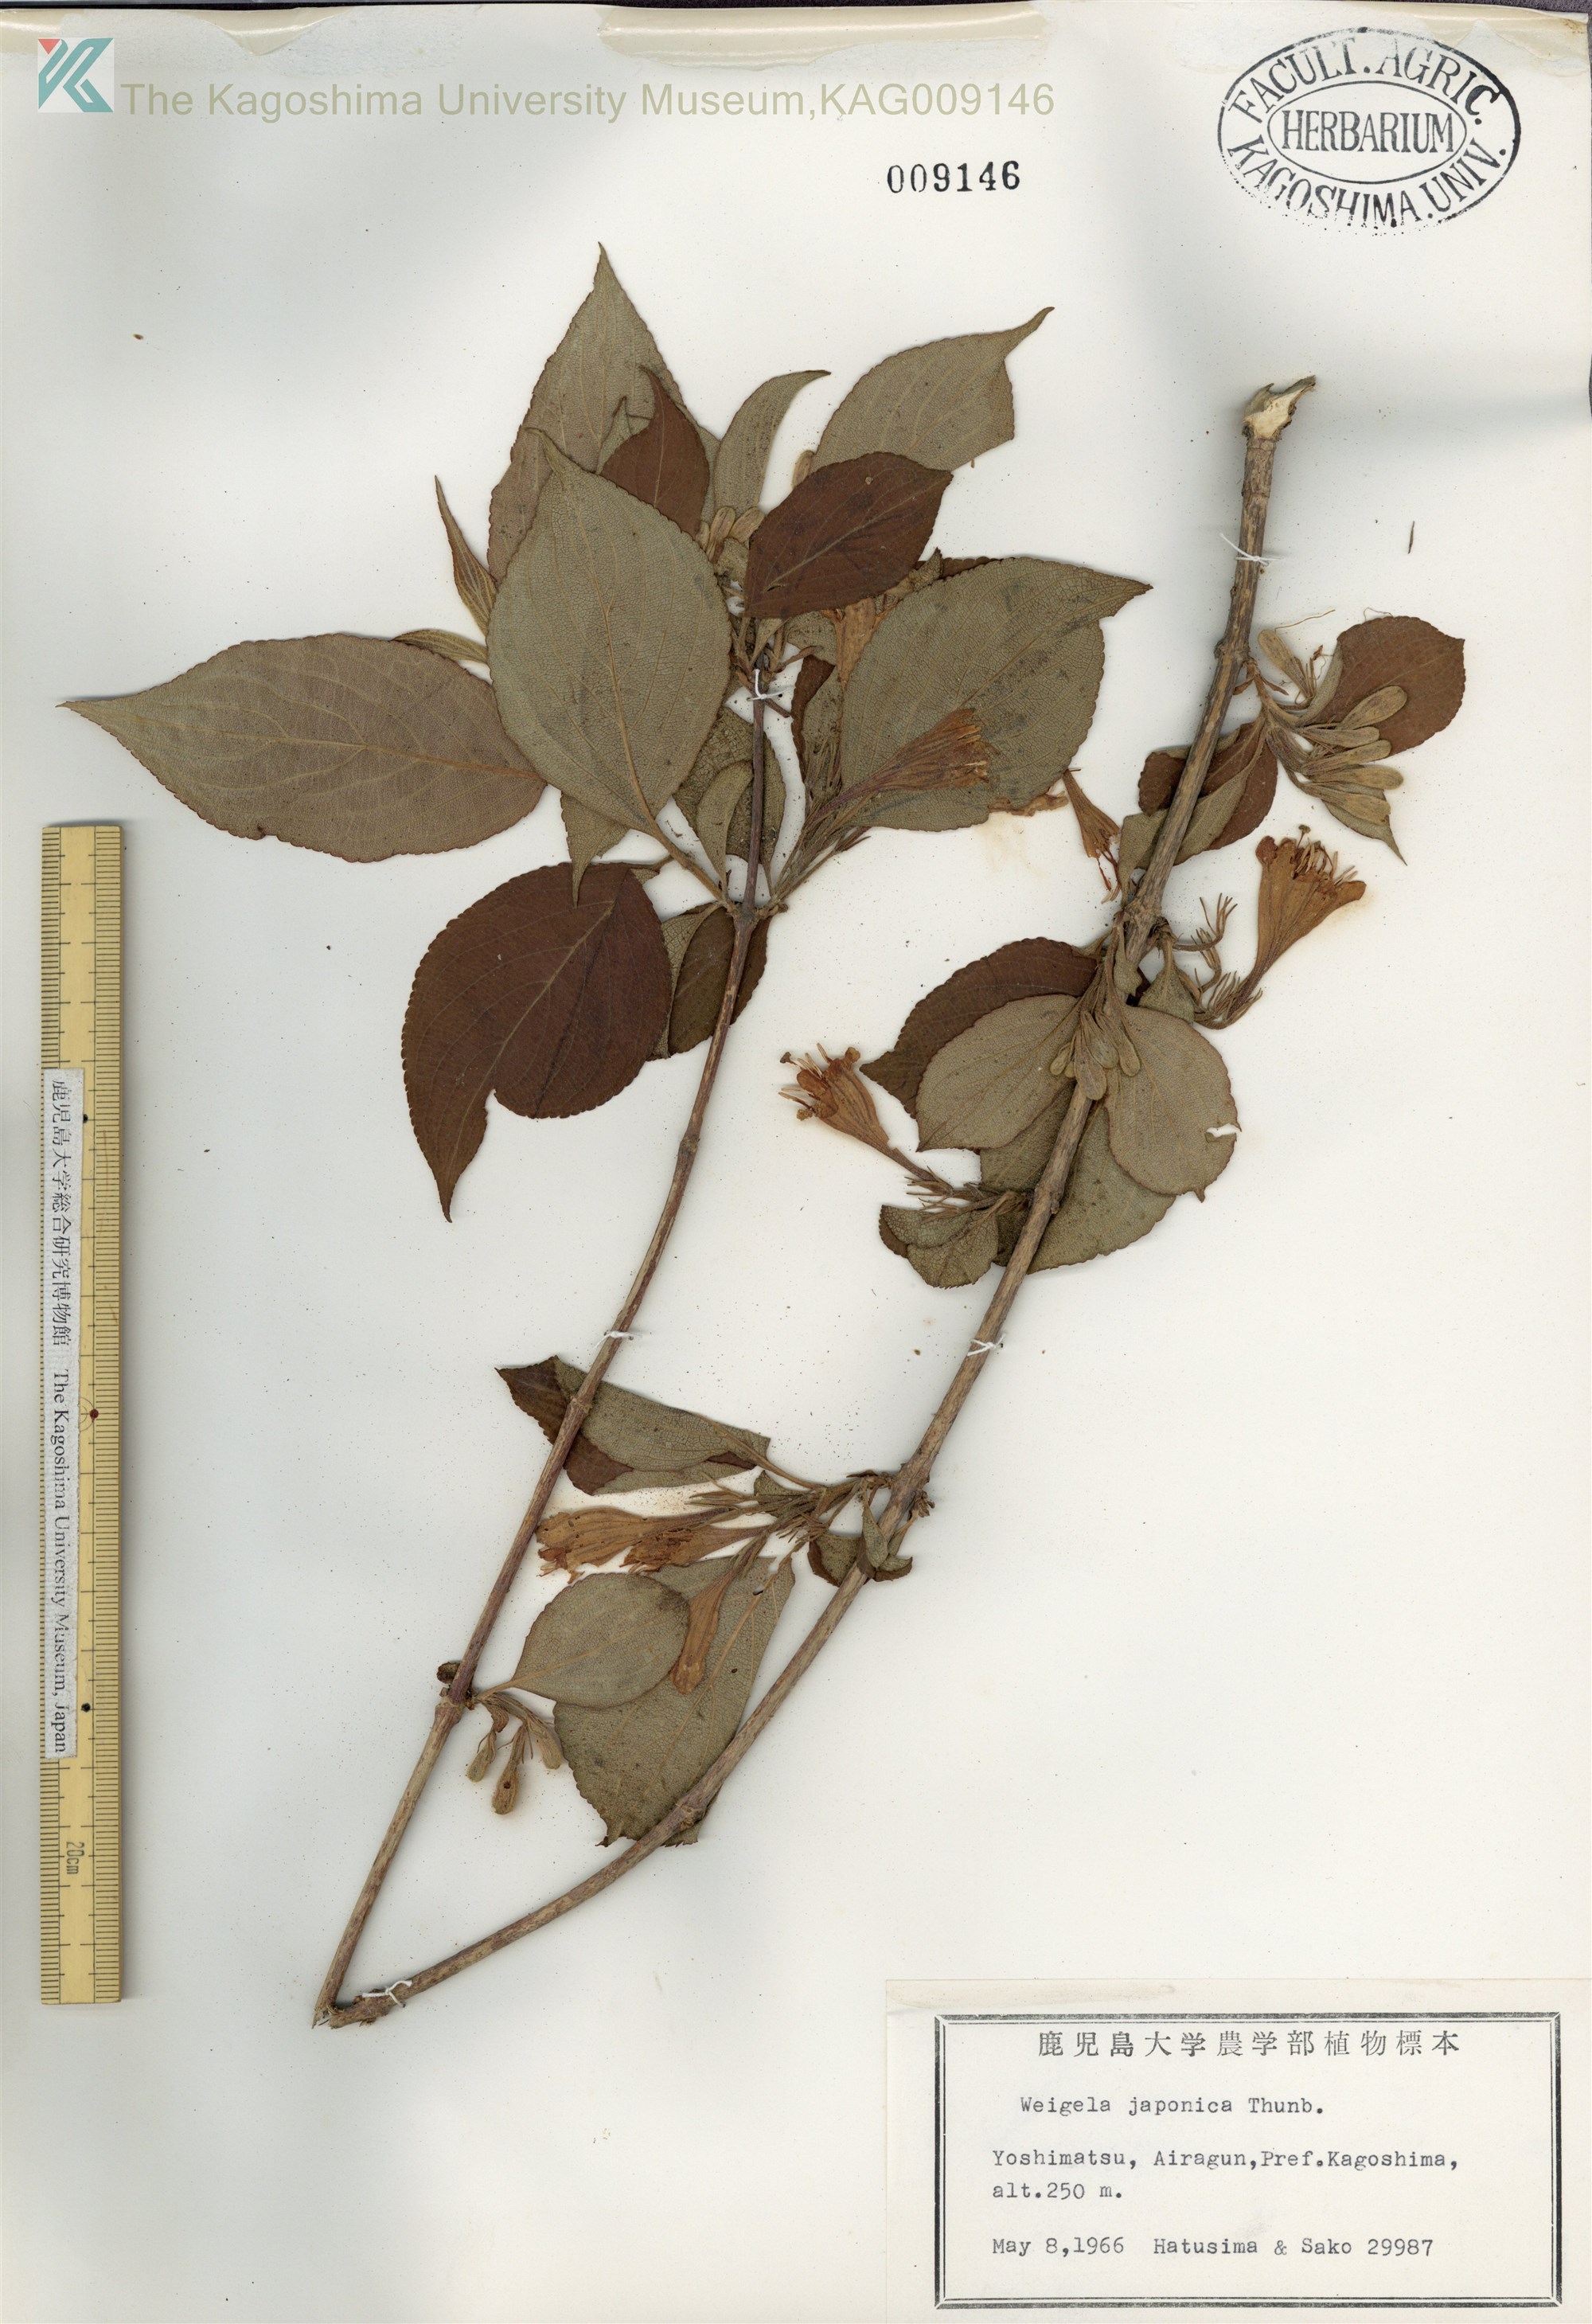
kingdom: Plantae
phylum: Tracheophyta
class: Magnoliopsida
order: Dipsacales
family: Caprifoliaceae
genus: Weigela
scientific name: Weigela japonica
